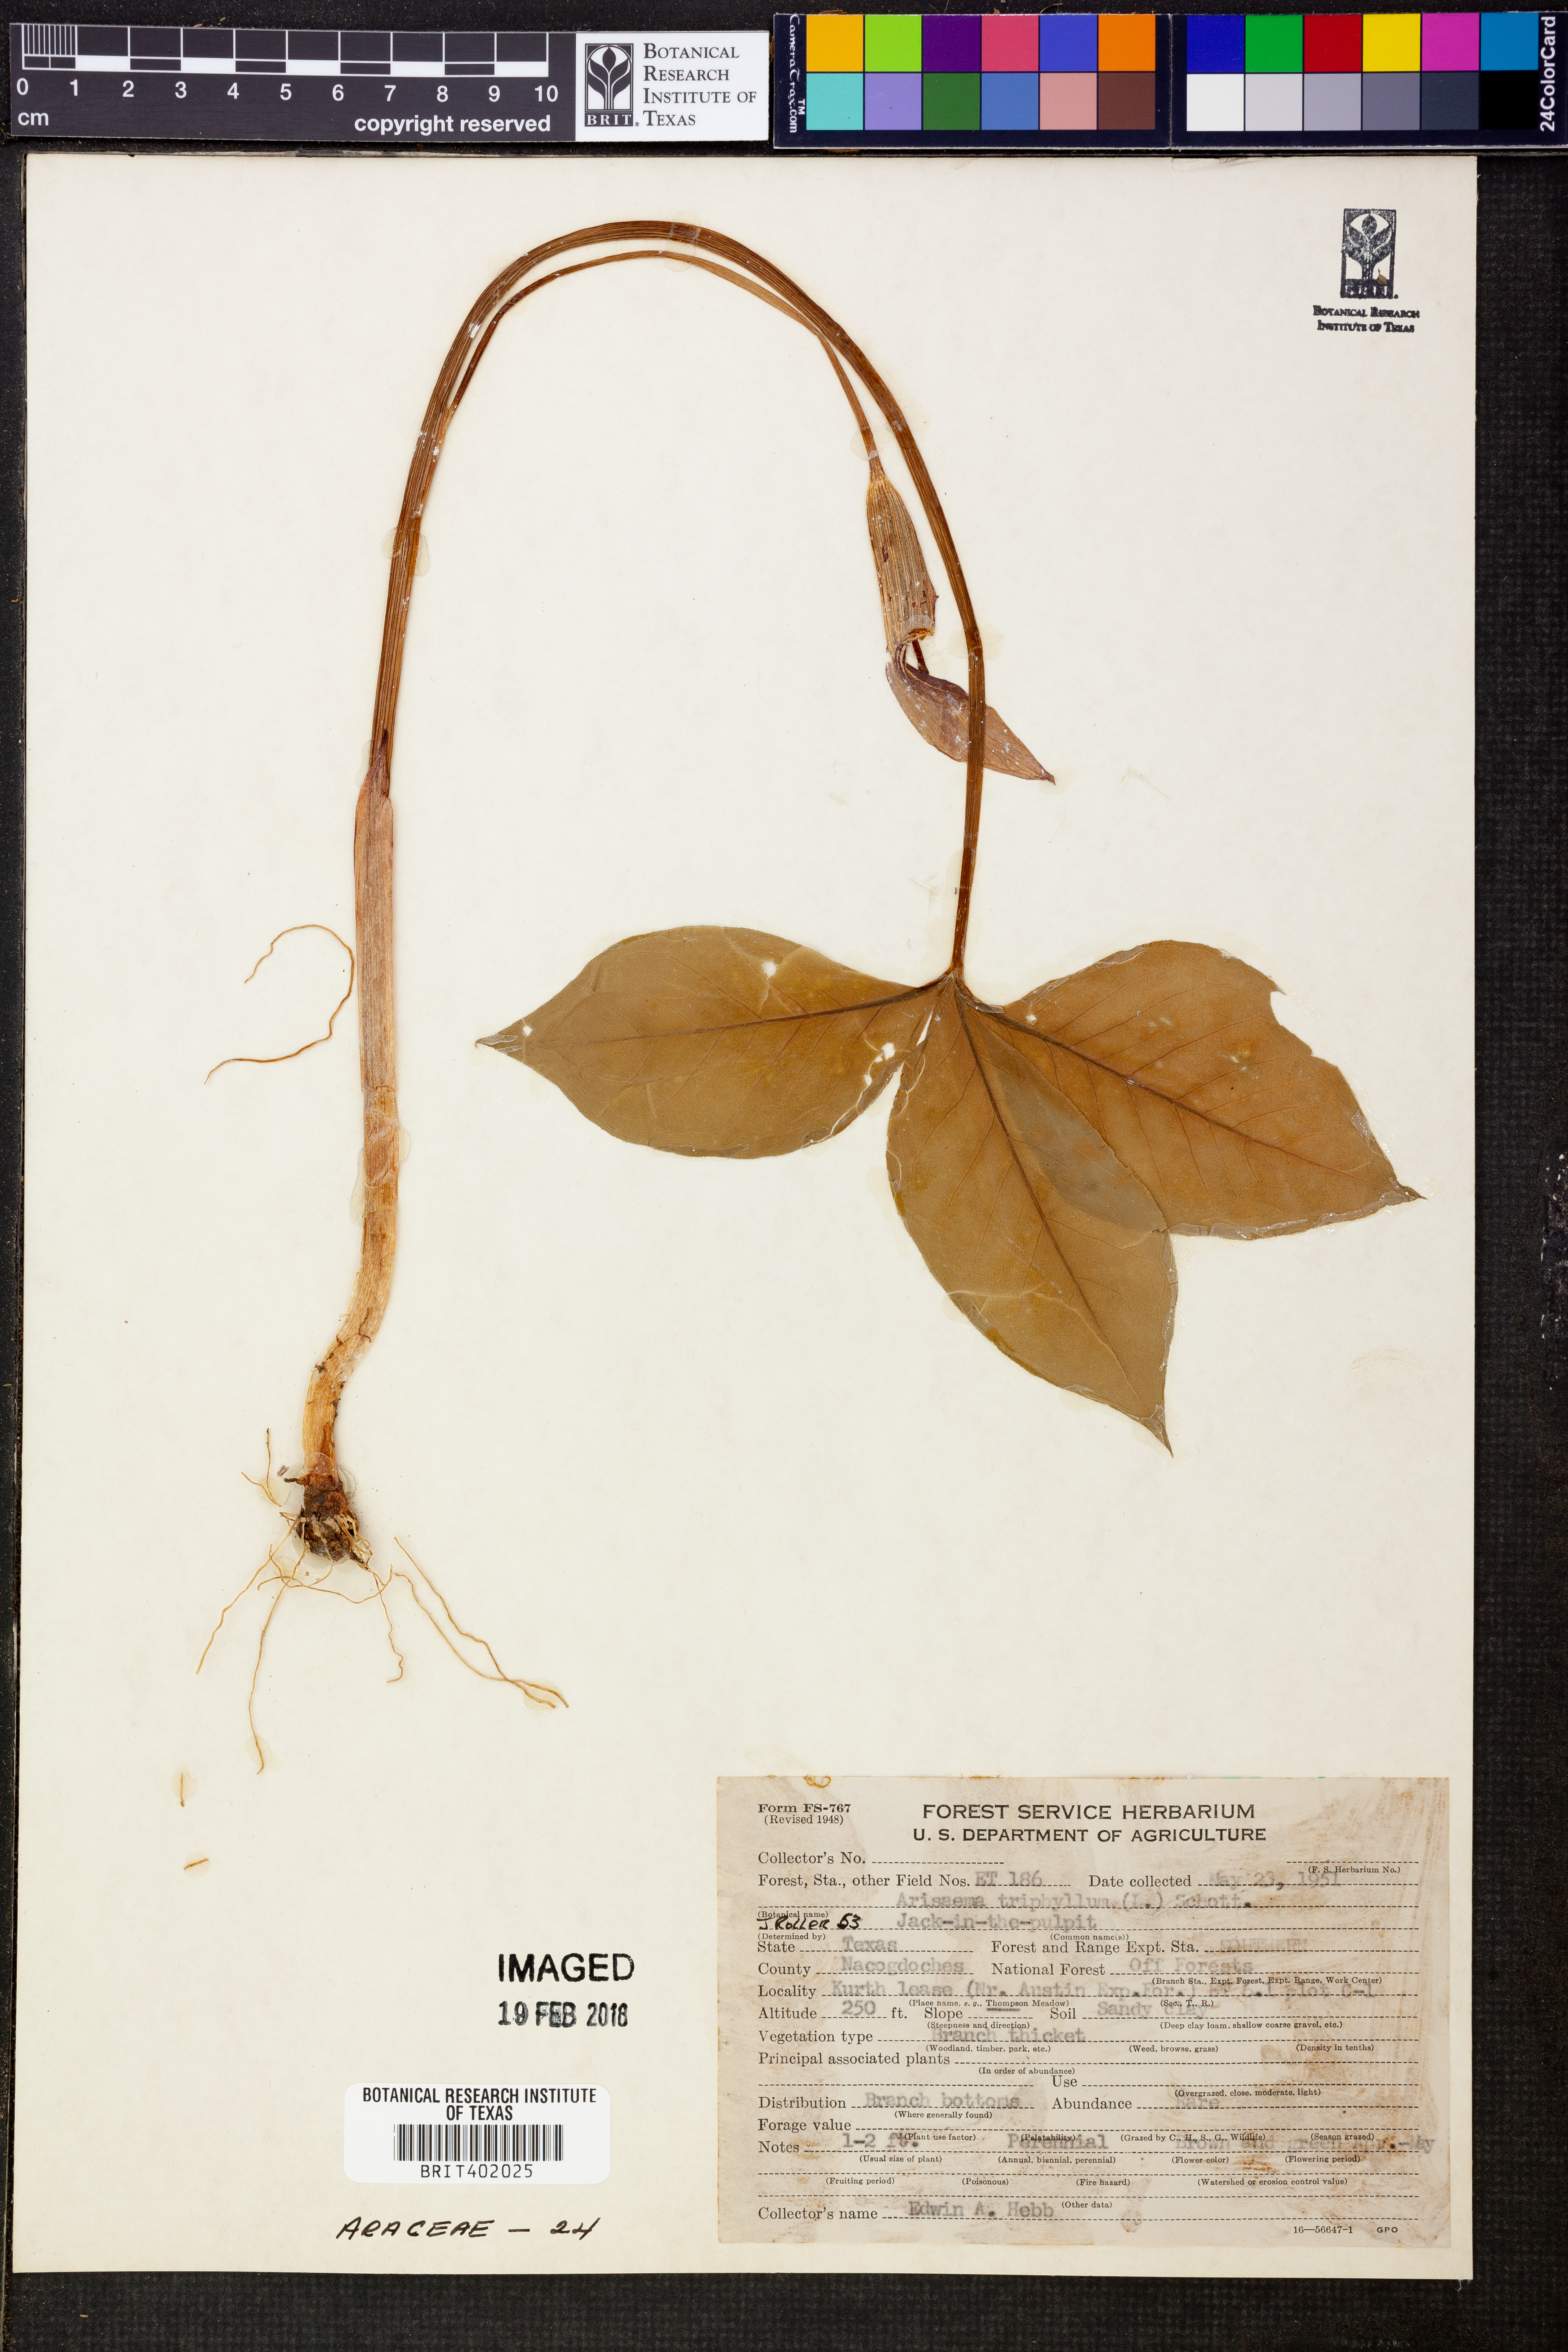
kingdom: Plantae
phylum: Tracheophyta
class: Liliopsida
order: Alismatales
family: Araceae
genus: Arisaema
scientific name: Arisaema triphyllum
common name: Jack-in-the-pulpit
